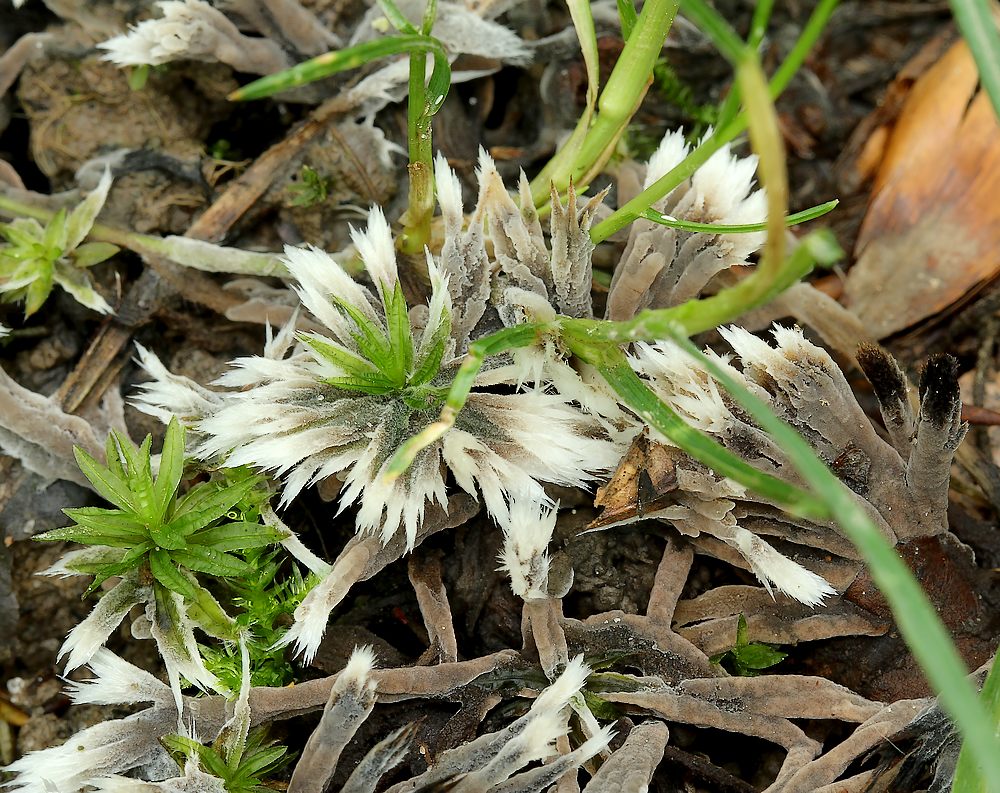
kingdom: Fungi
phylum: Basidiomycota
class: Agaricomycetes
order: Thelephorales
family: Thelephoraceae
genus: Thelephora
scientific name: Thelephora penicillata
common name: fladtrådt frynsesvamp
